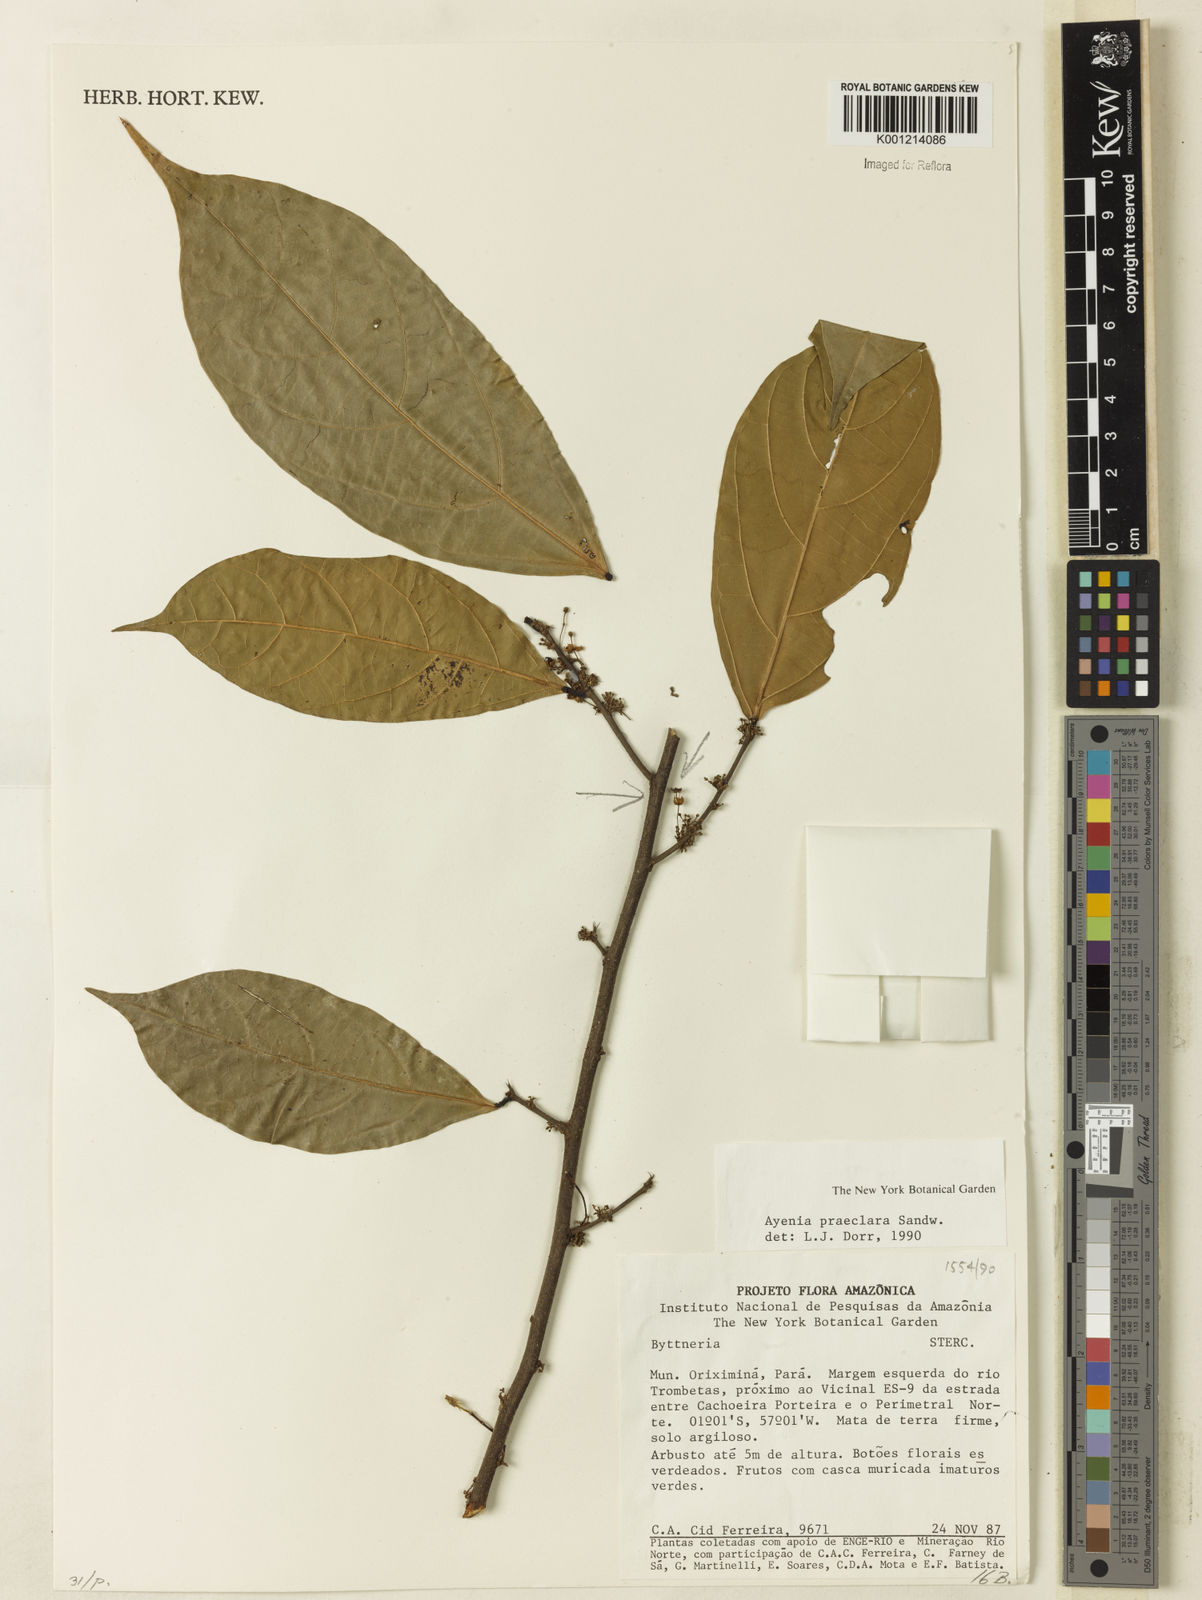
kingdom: Plantae
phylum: Tracheophyta
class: Magnoliopsida
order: Malvales
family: Malvaceae
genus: Ayenia
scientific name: Ayenia praeclara
